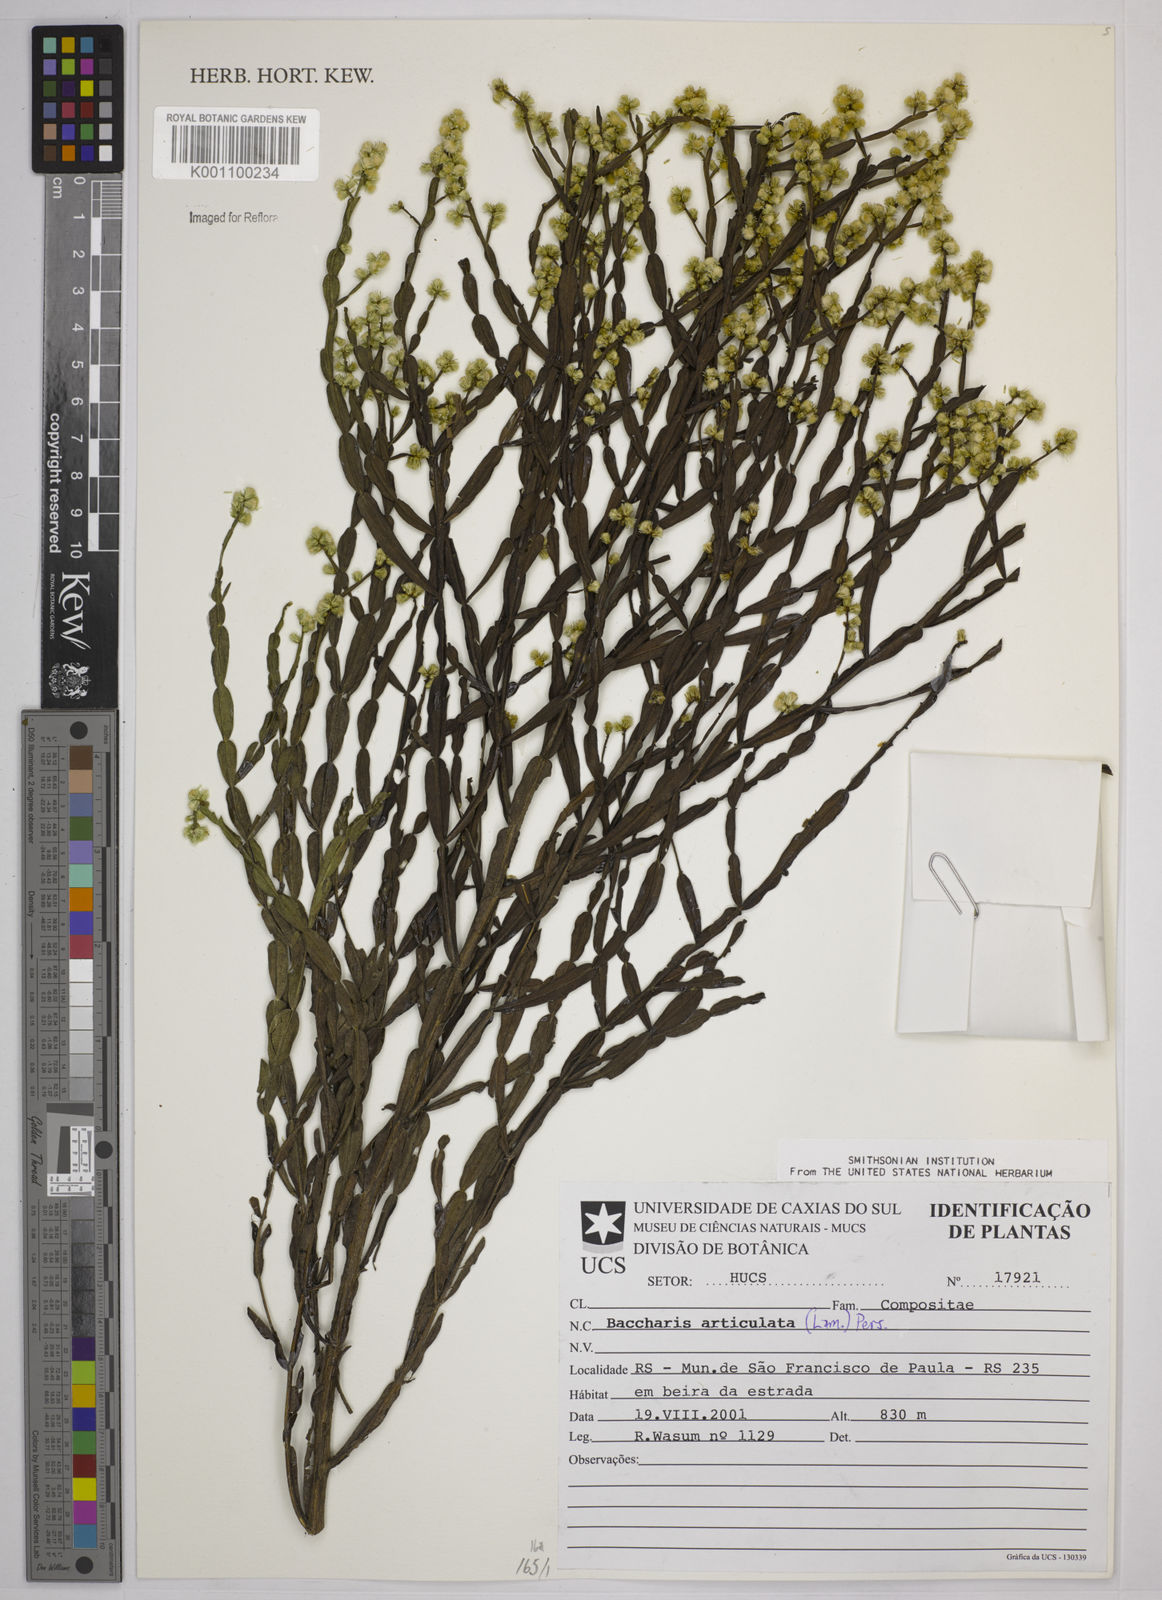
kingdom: Plantae
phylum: Tracheophyta
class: Magnoliopsida
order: Asterales
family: Asteraceae
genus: Baccharis
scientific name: Baccharis
